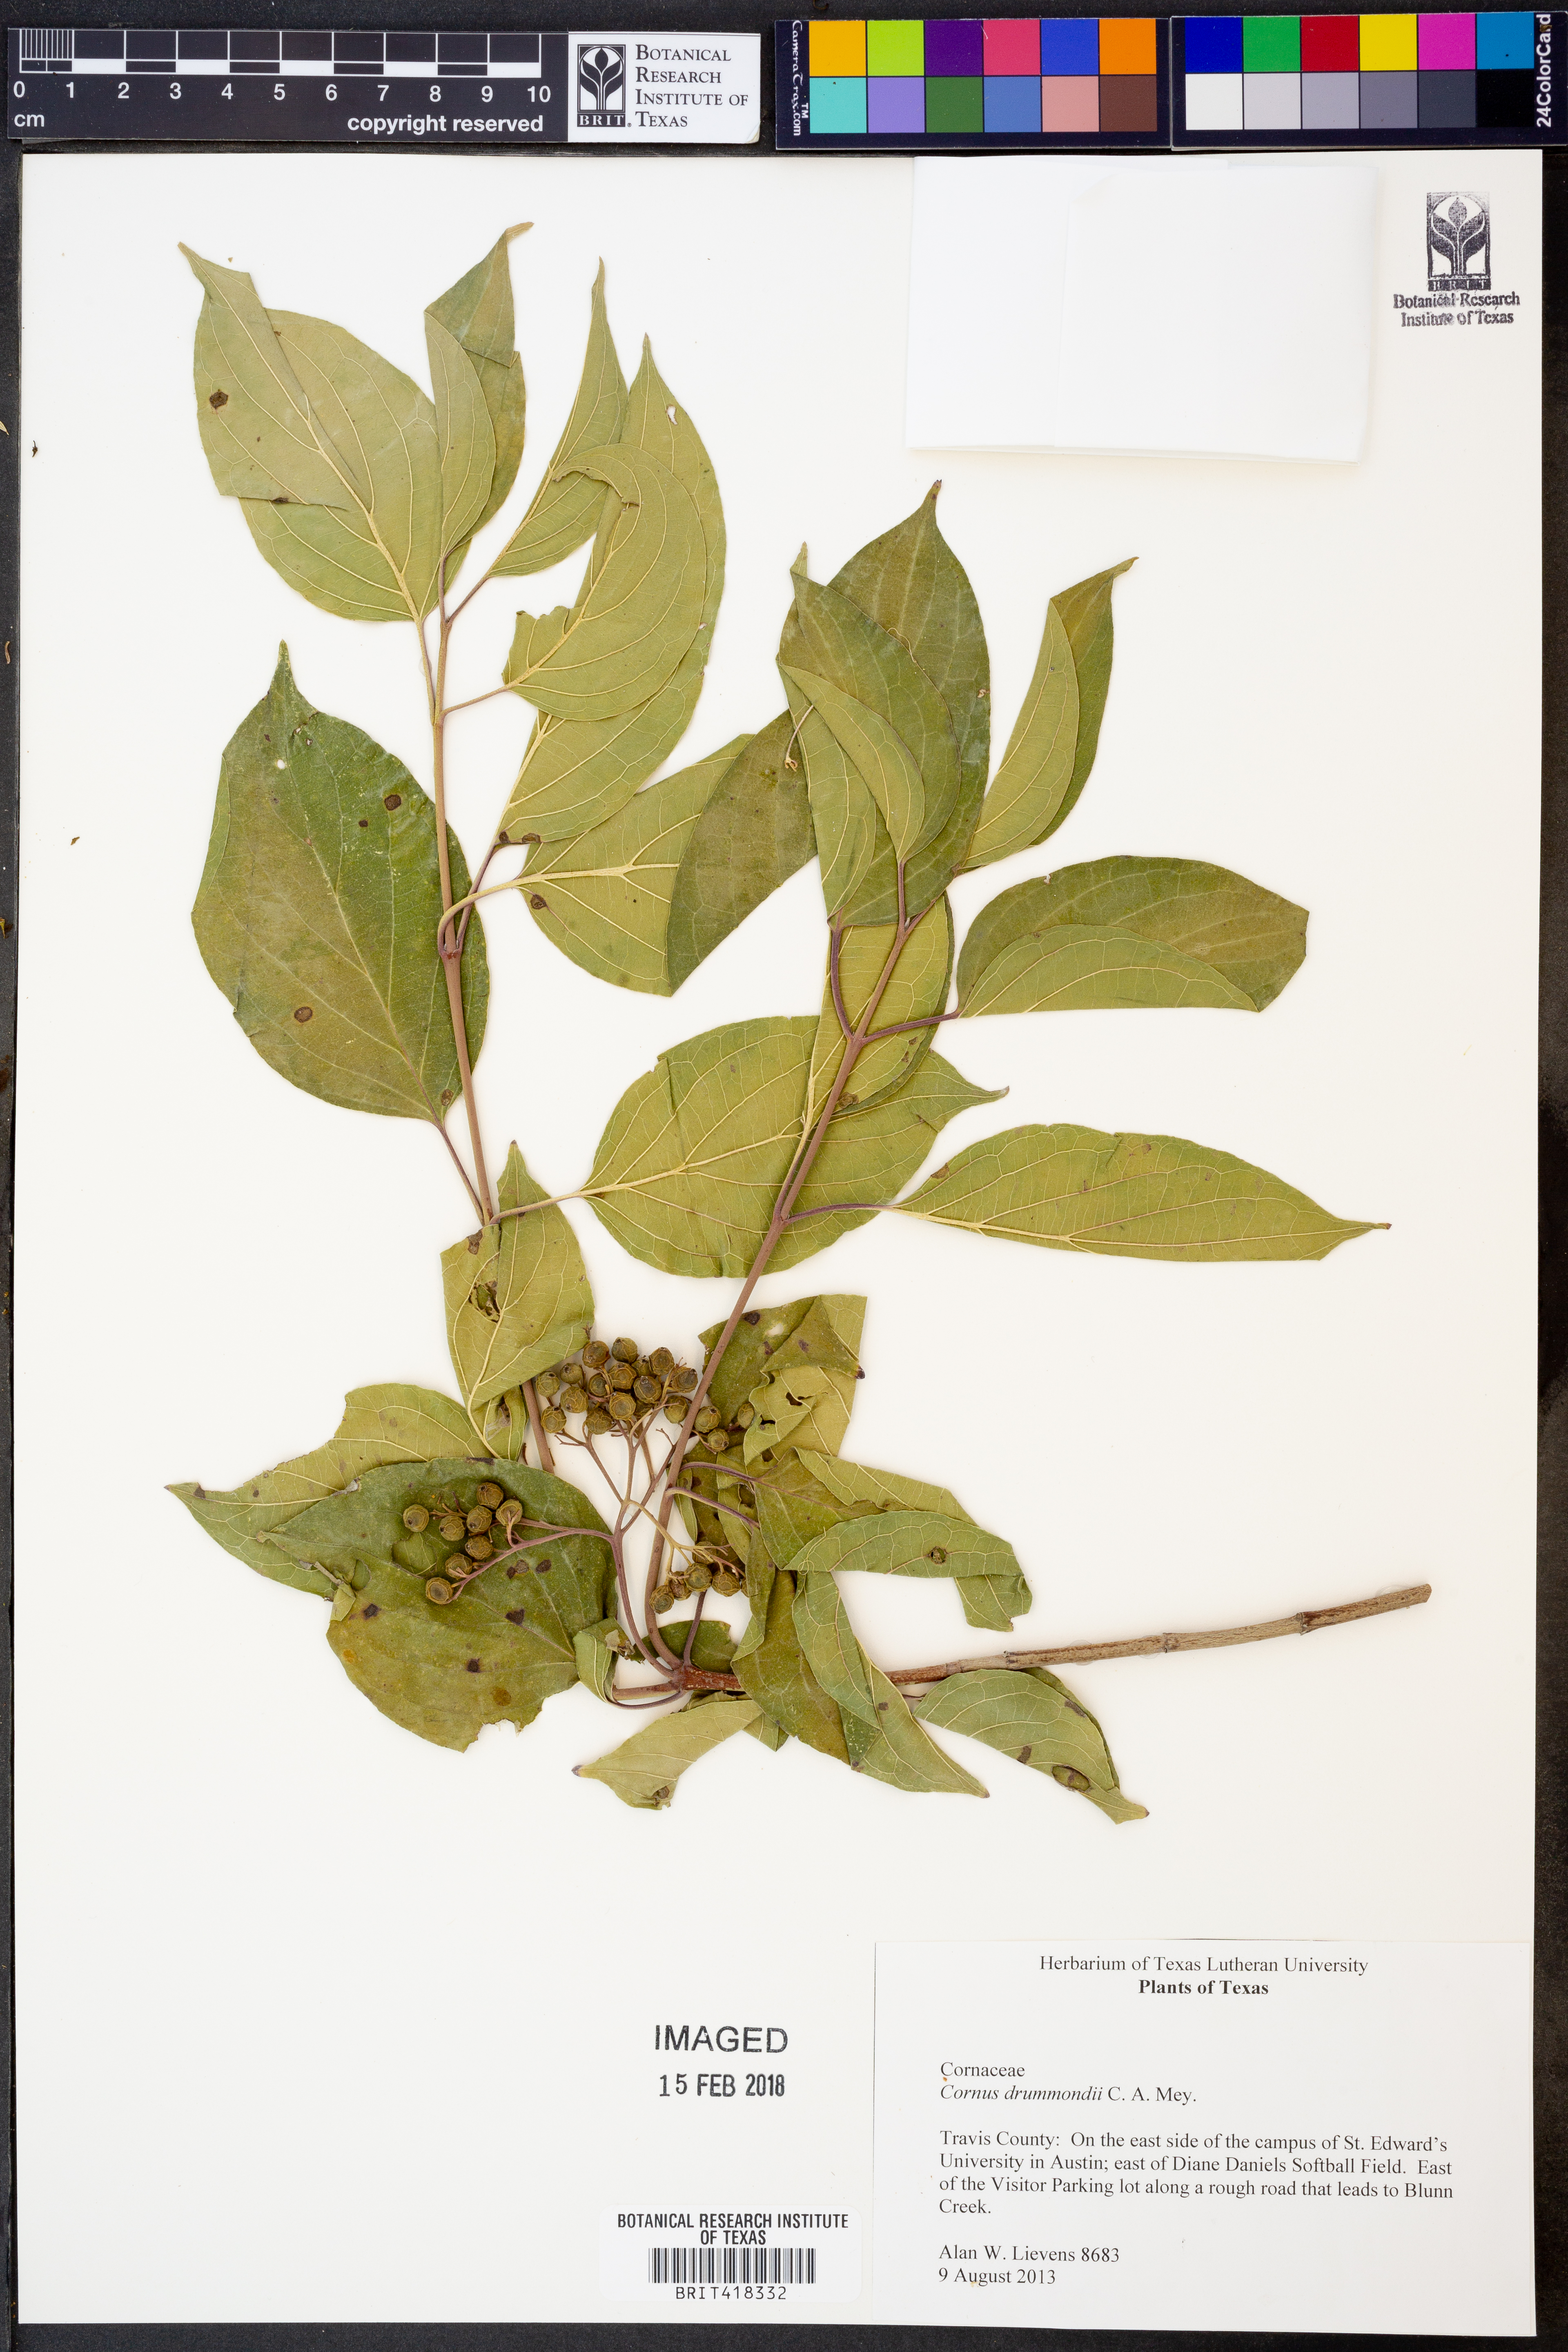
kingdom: Plantae
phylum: Tracheophyta
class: Magnoliopsida
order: Cornales
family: Cornaceae
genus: Cornus
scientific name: Cornus drummondii
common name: Rough-leaf dogwood
